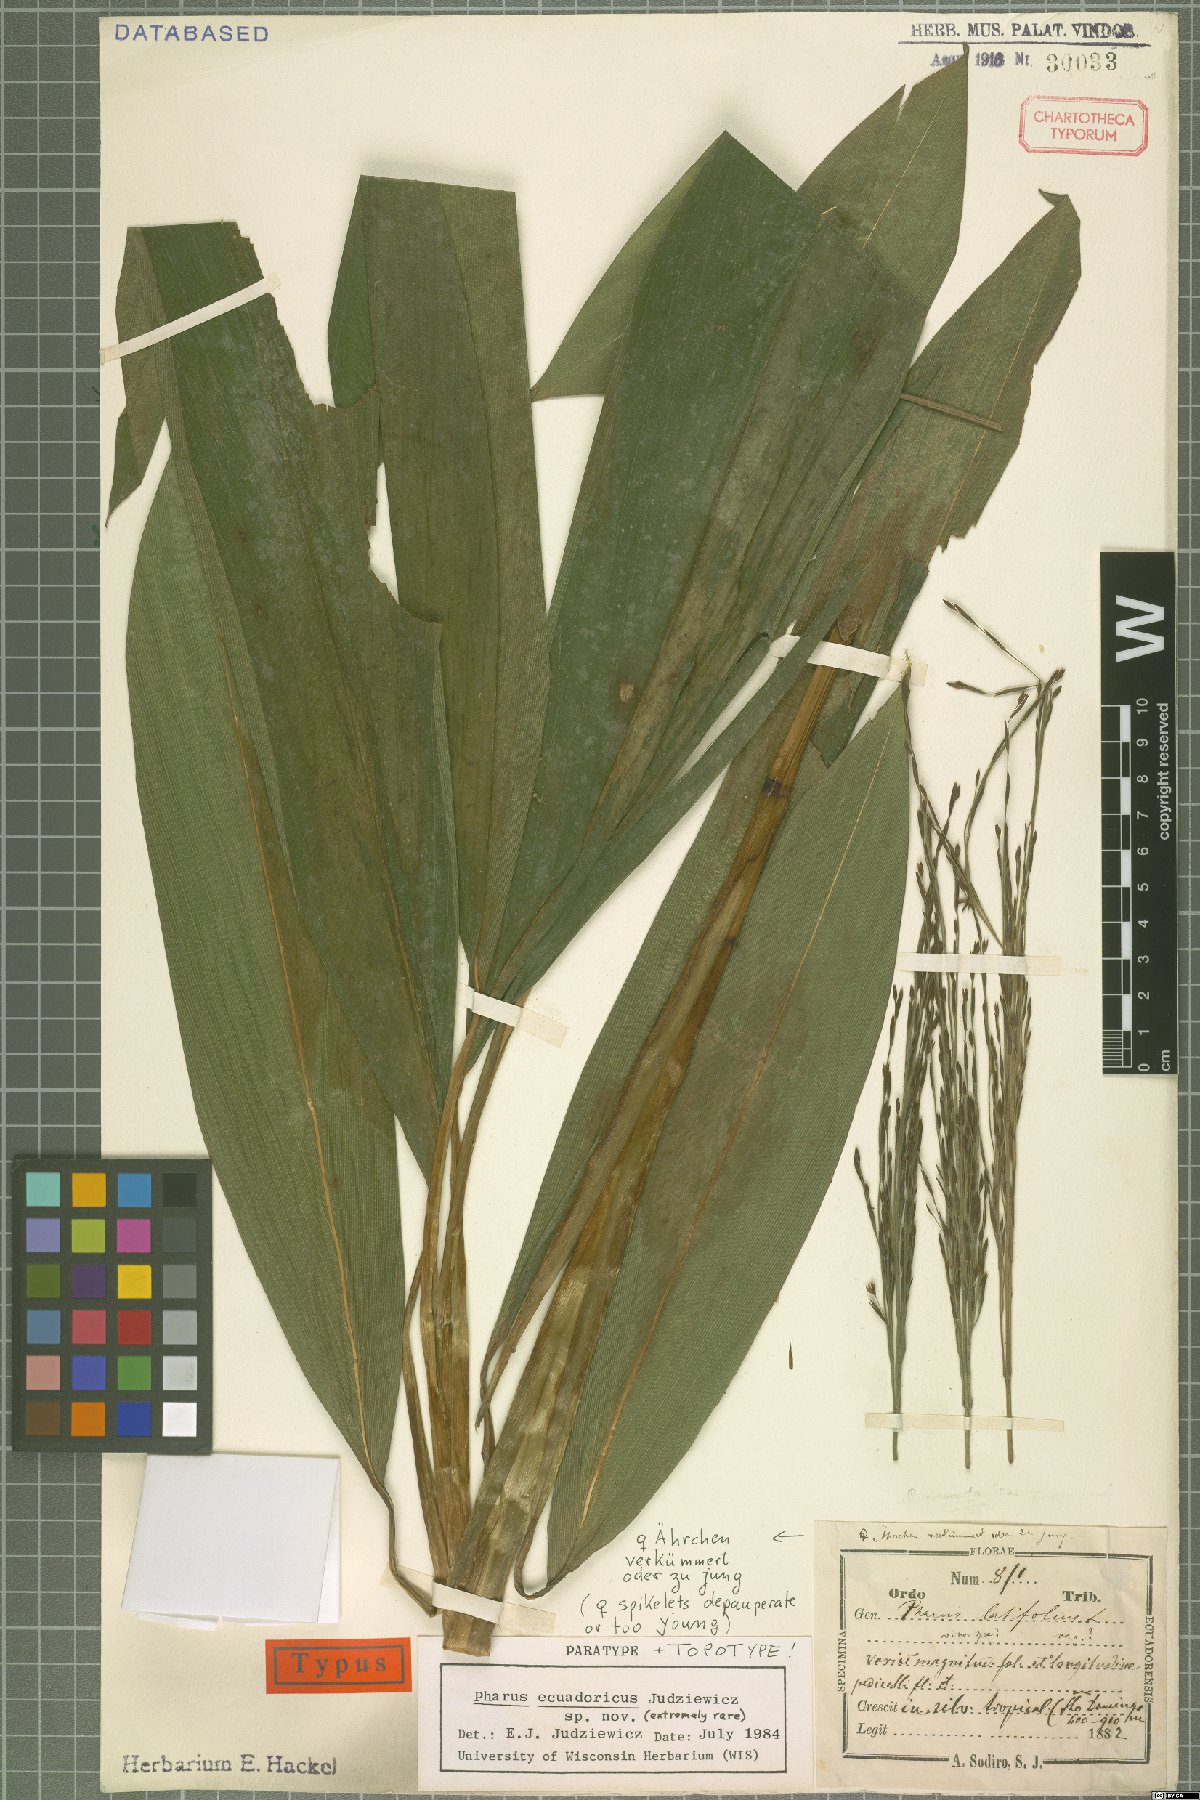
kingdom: Plantae
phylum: Tracheophyta
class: Liliopsida
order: Poales
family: Poaceae
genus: Pharus
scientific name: Pharus ecuadoricus
